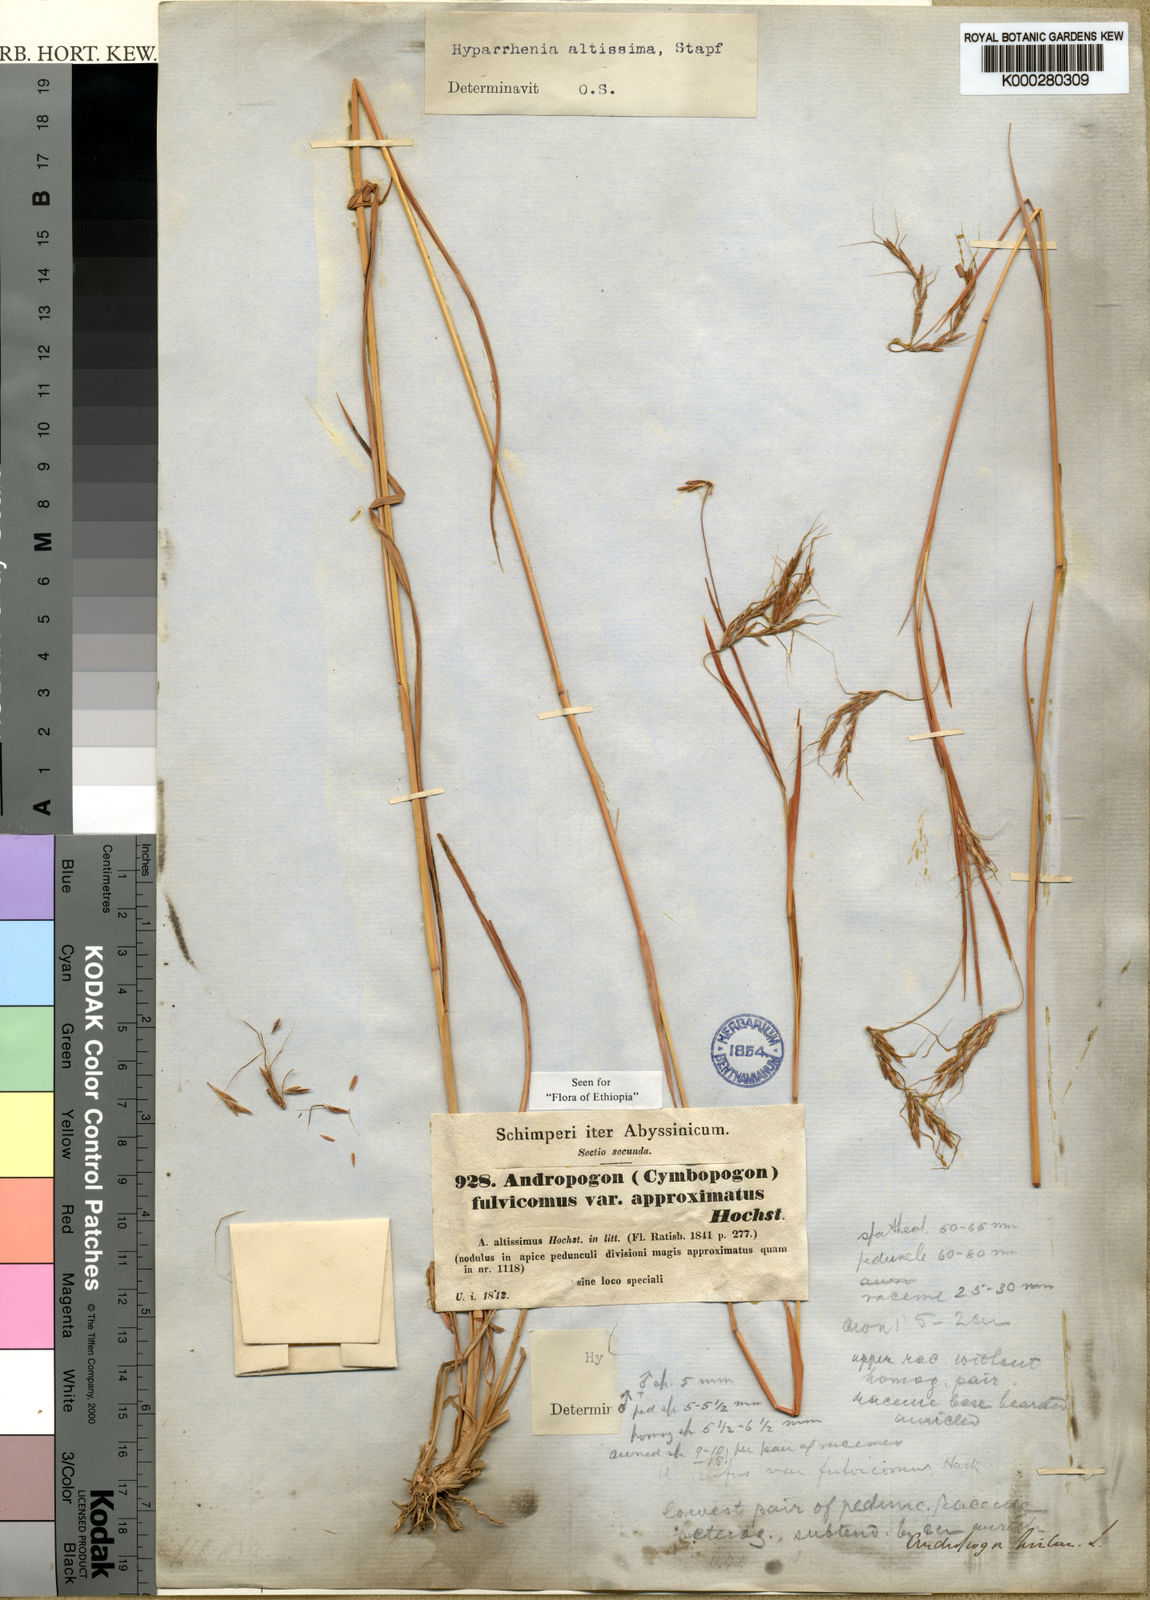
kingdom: Plantae
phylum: Tracheophyta
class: Liliopsida
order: Poales
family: Poaceae
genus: Hyparrhenia
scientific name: Hyparrhenia rufa
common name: Jaraguagrass
